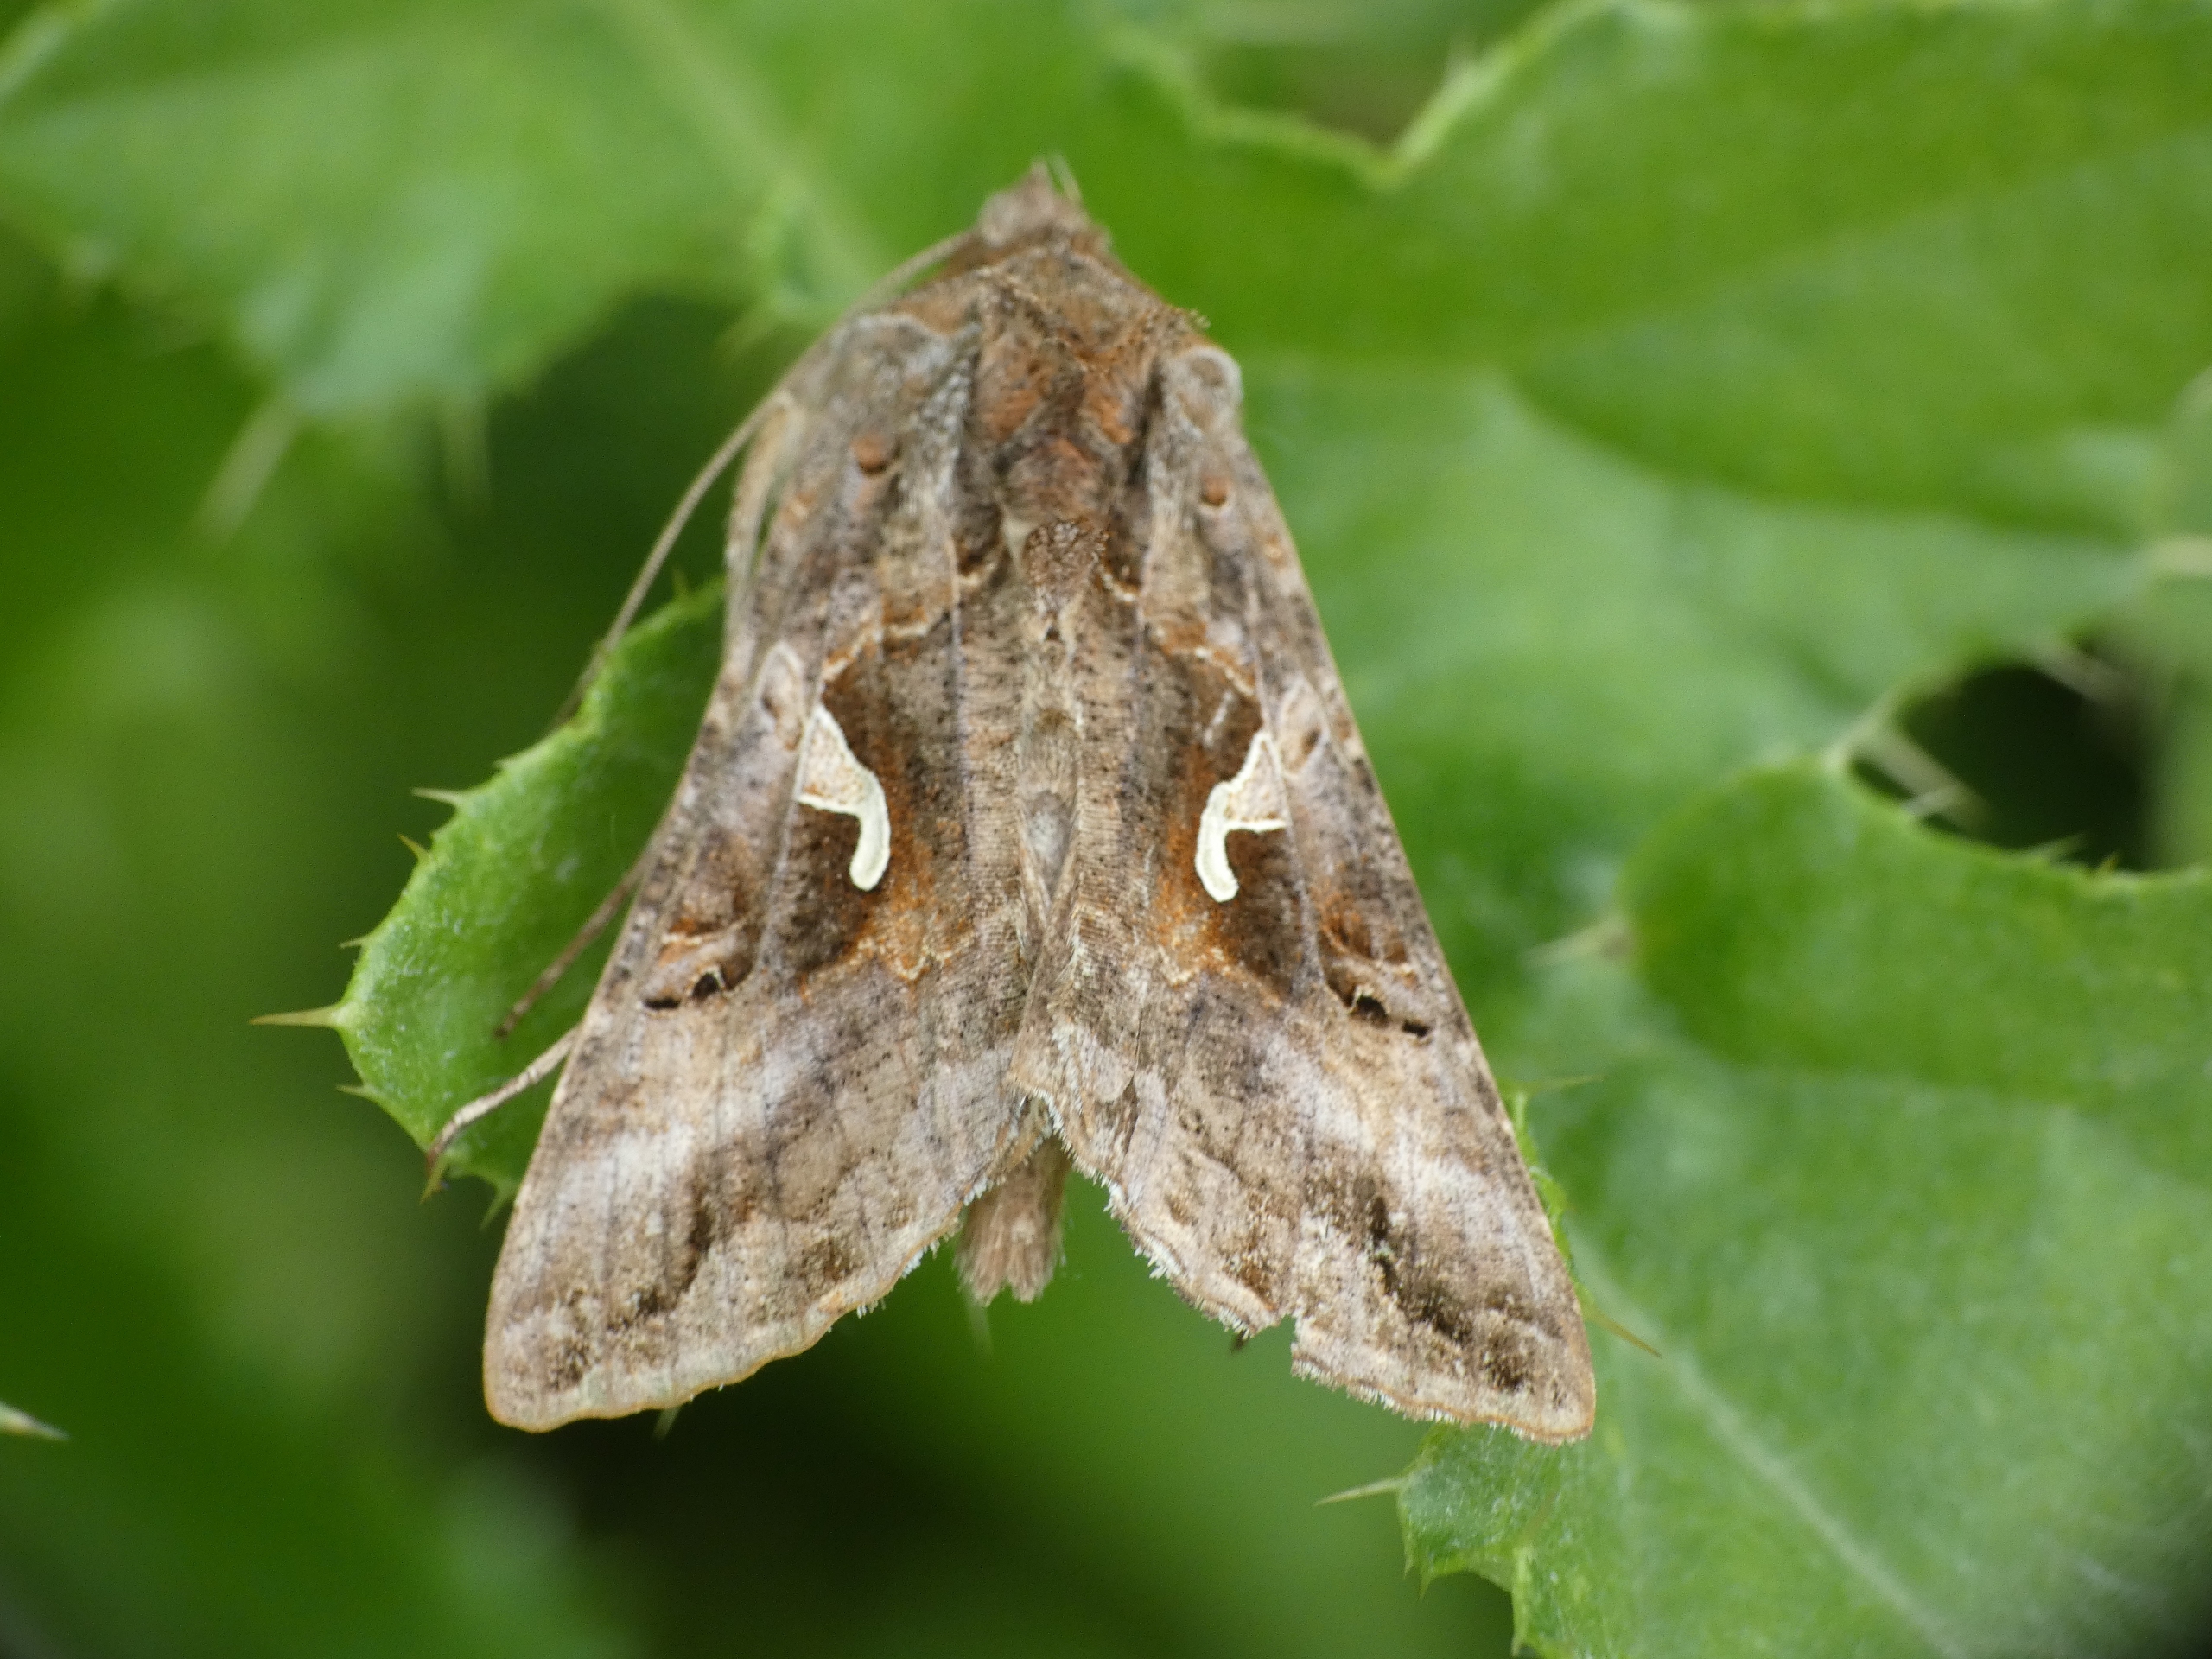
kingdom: Animalia
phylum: Arthropoda
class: Insecta
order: Lepidoptera
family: Noctuidae
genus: Autographa
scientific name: Autographa gamma
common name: Gammaugle
